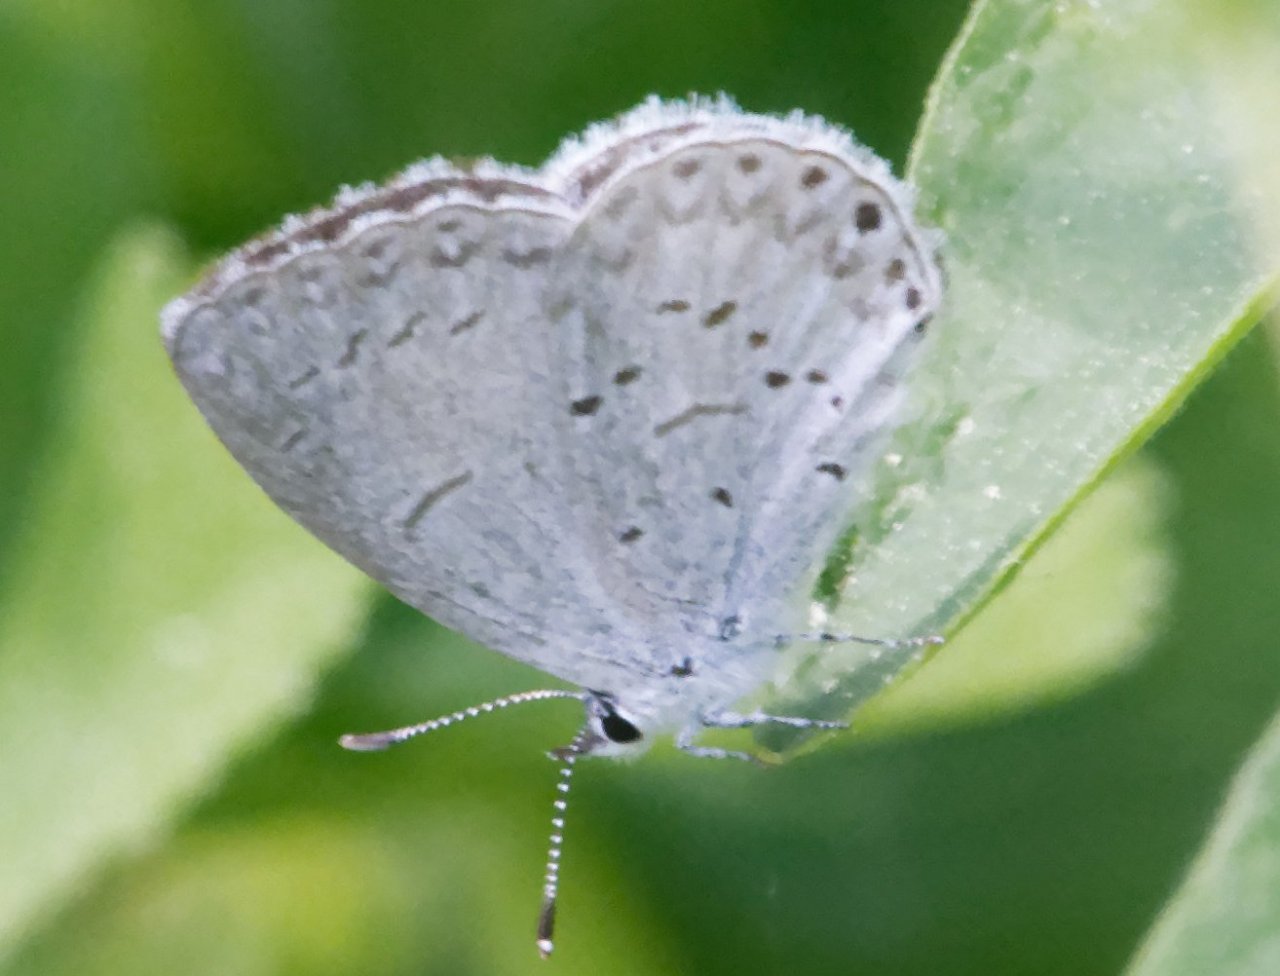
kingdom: Animalia
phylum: Arthropoda
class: Insecta
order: Lepidoptera
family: Lycaenidae
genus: Celastrina
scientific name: Celastrina
